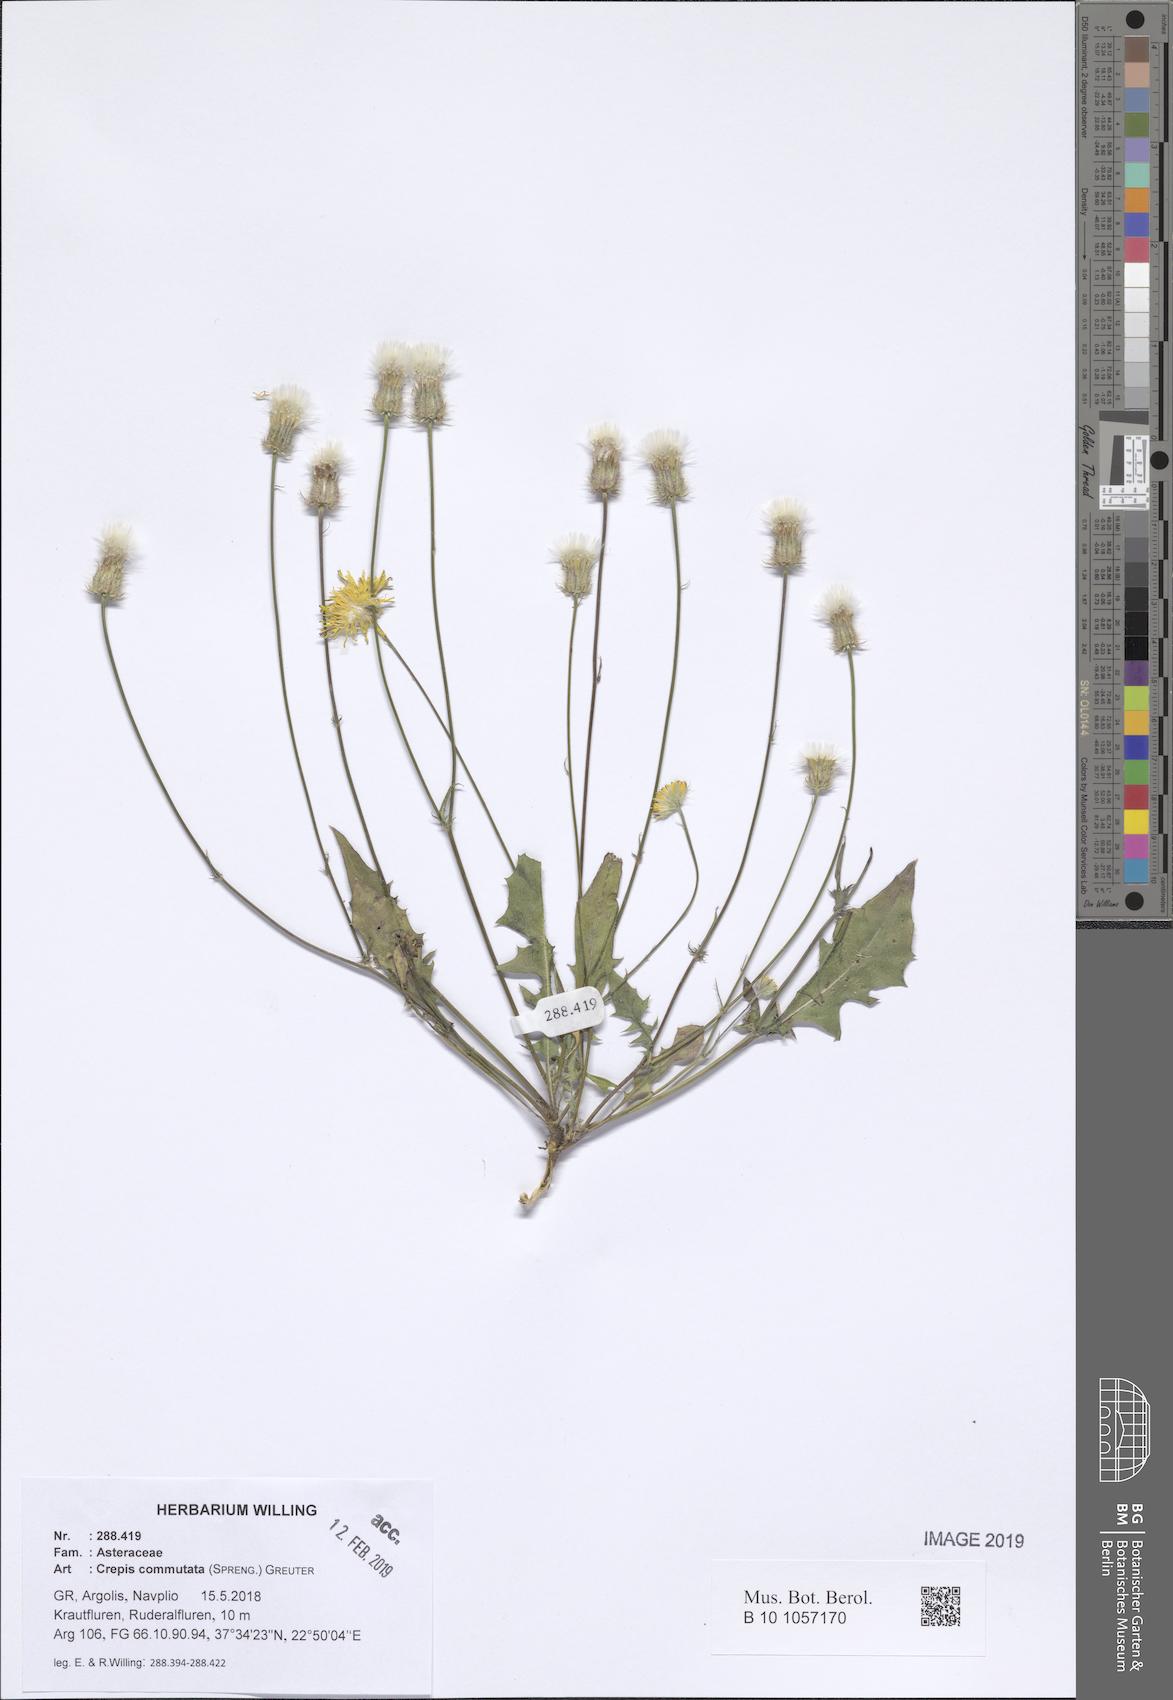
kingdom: Plantae
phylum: Tracheophyta
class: Magnoliopsida
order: Asterales
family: Asteraceae
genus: Crepis
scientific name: Crepis commutata
